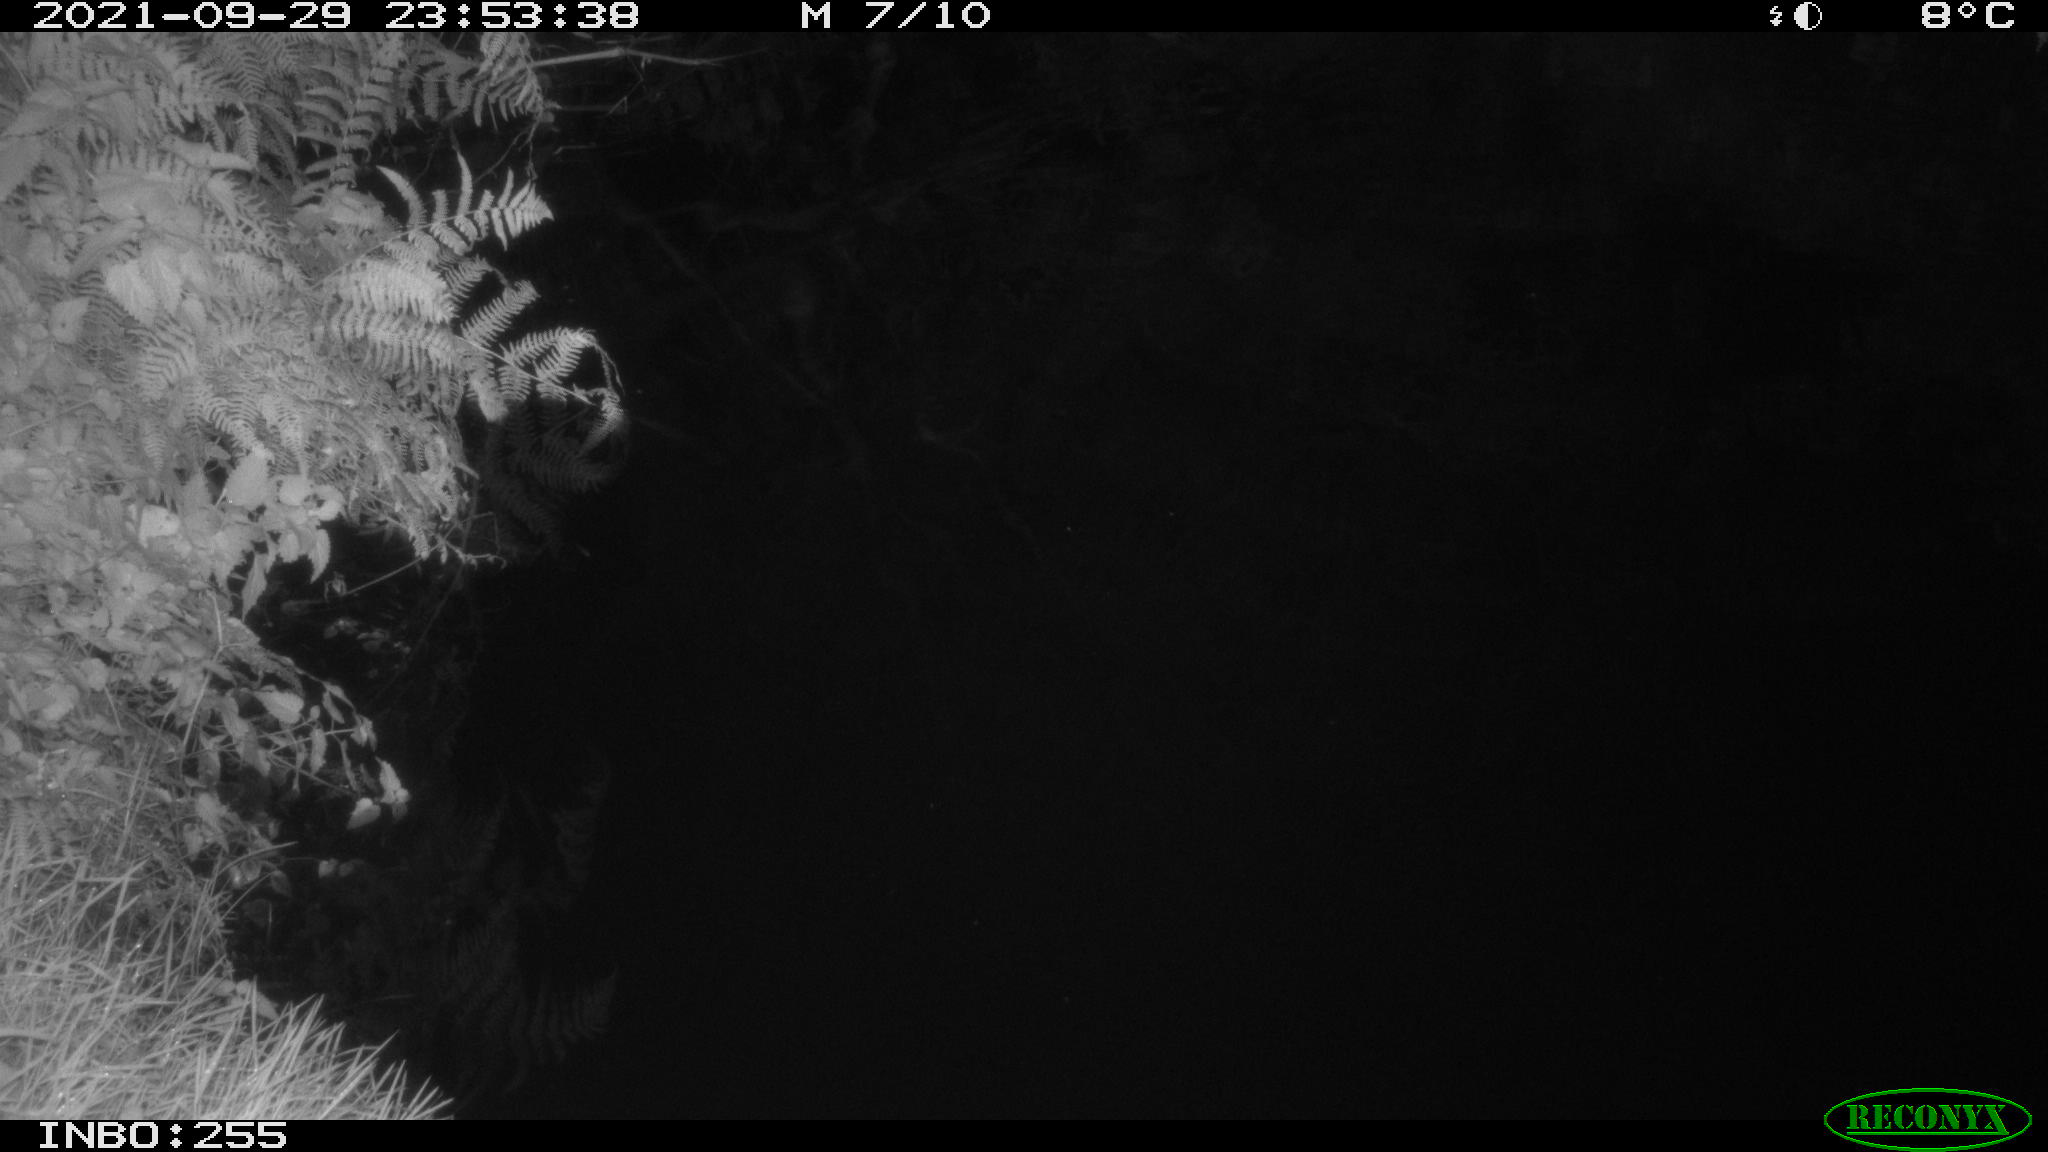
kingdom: Animalia
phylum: Chordata
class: Aves
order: Anseriformes
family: Anatidae
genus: Anas
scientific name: Anas platyrhynchos
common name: Mallard
